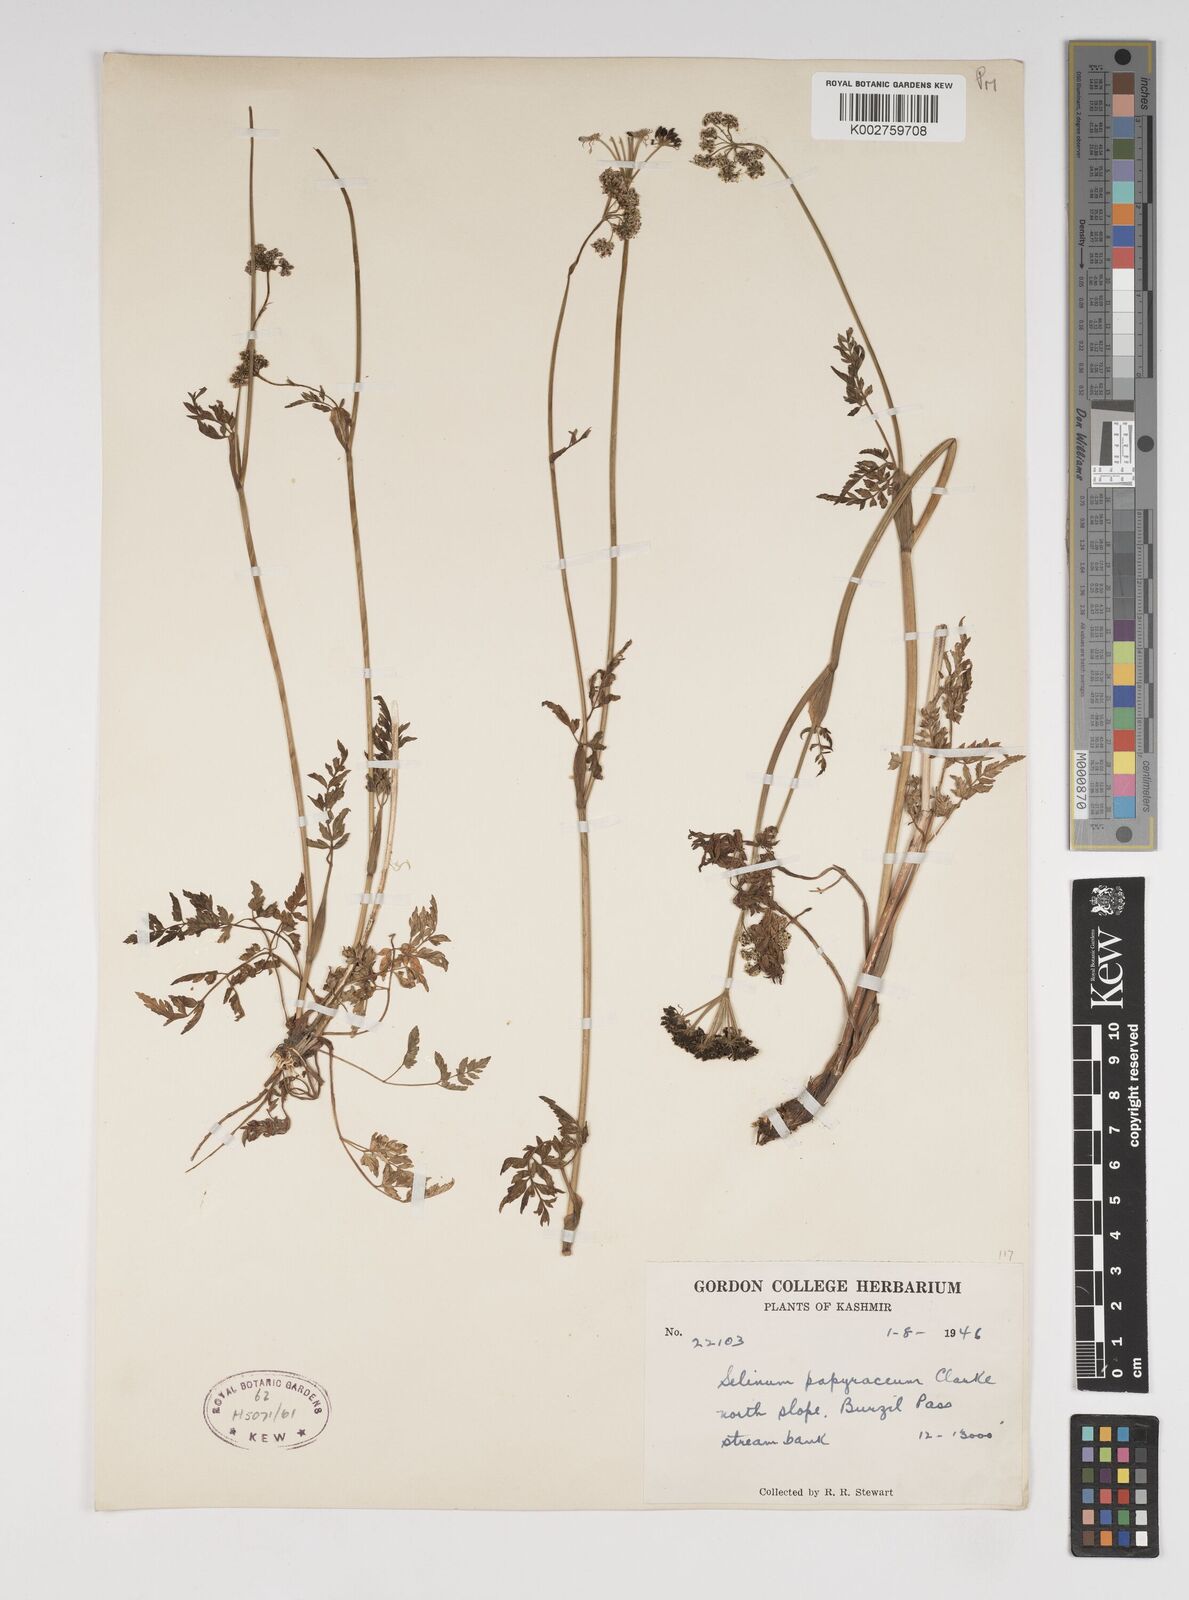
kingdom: Plantae
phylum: Tracheophyta
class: Magnoliopsida
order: Apiales
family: Apiaceae
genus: Conioselinum
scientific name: Conioselinum tataricum
